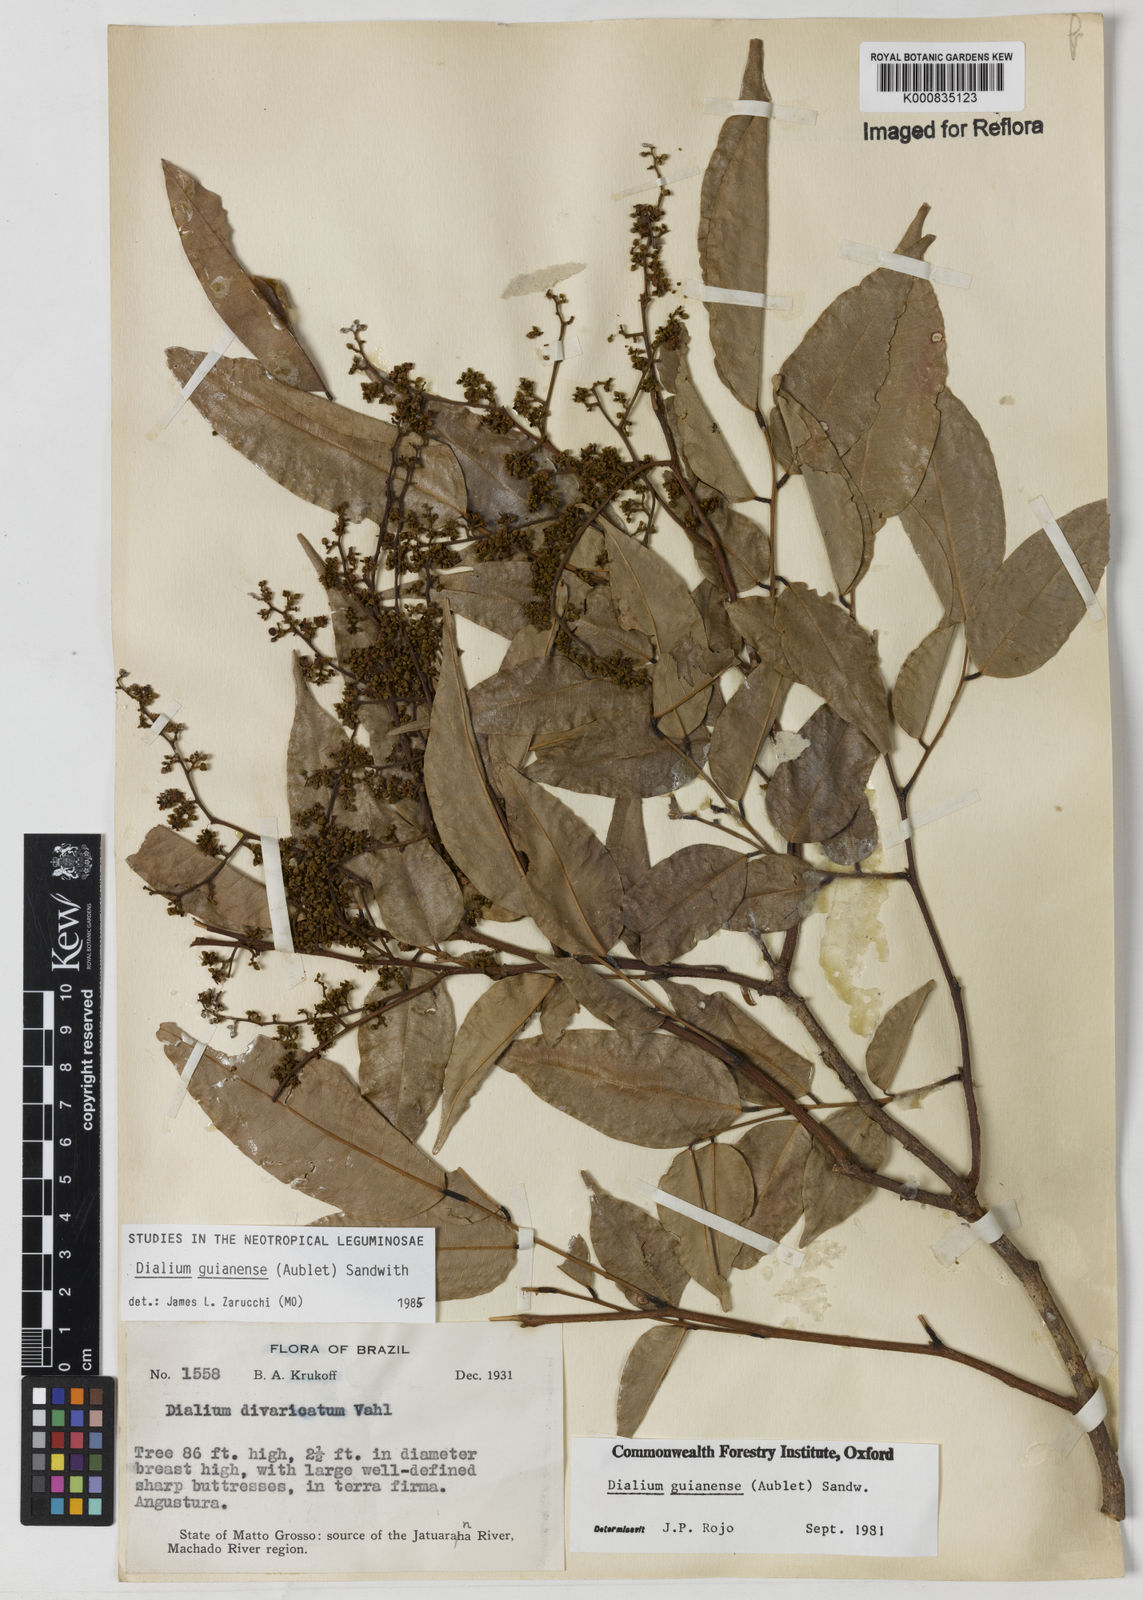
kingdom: Plantae
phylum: Tracheophyta
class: Magnoliopsida
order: Fabales
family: Fabaceae
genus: Dialium
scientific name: Dialium guianense
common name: Ironwood
